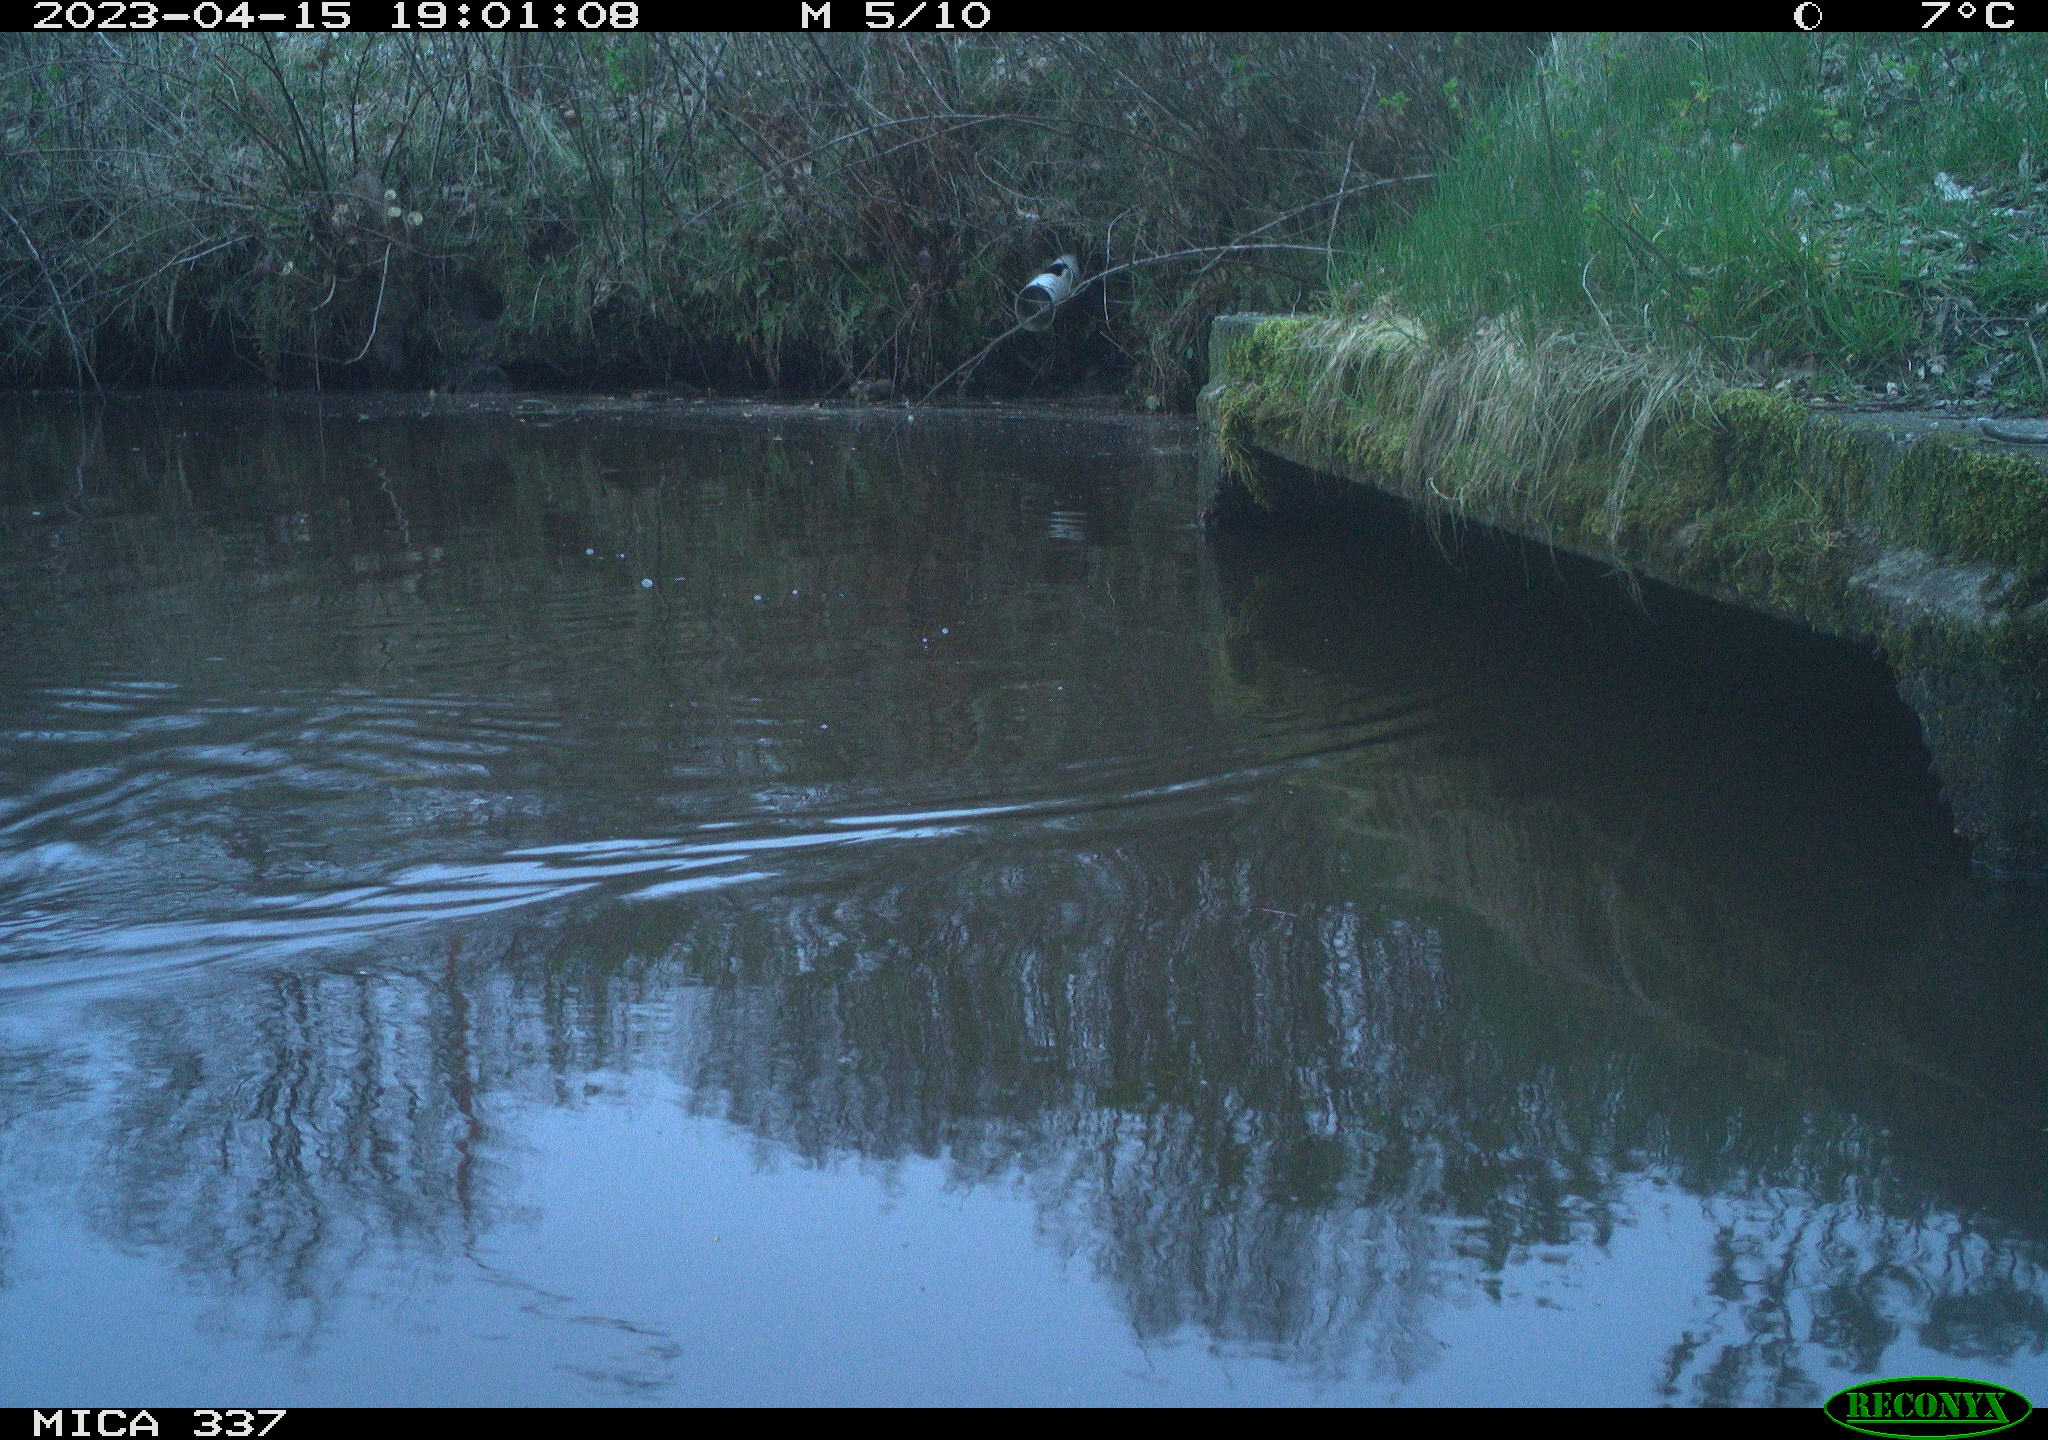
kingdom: Animalia
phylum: Chordata
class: Aves
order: Anseriformes
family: Anatidae
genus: Anas
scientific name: Anas
